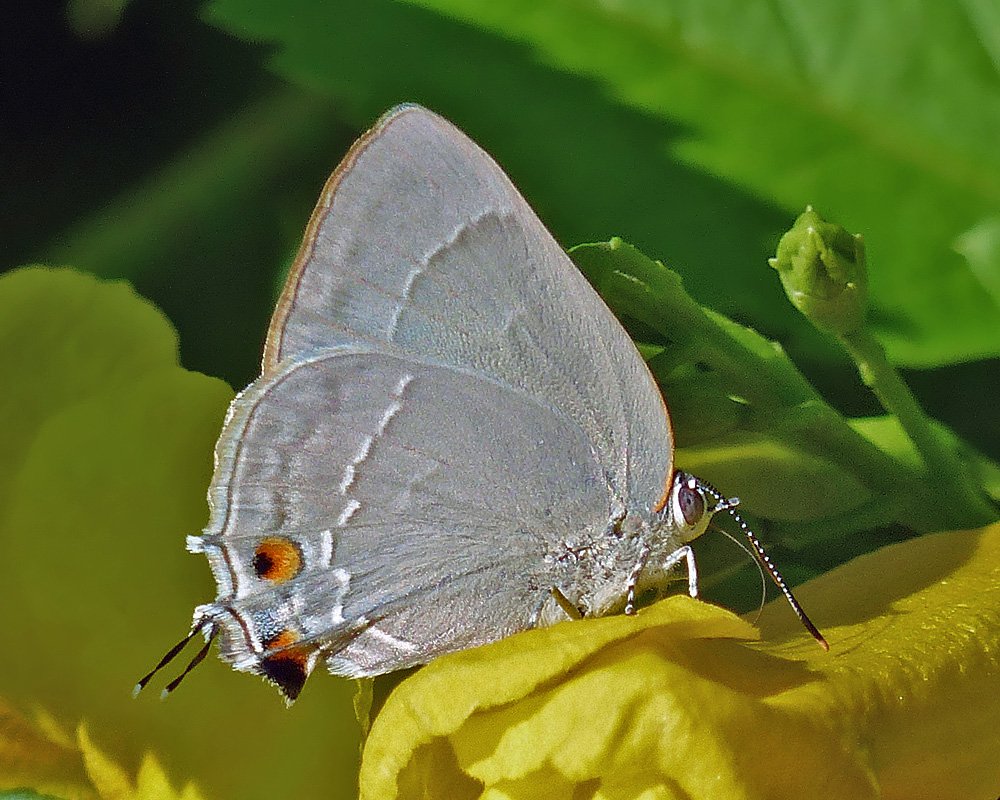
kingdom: Animalia
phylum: Arthropoda
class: Insecta
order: Lepidoptera
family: Lycaenidae
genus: Thecla
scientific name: Thecla marius
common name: Marius Hairstreak
